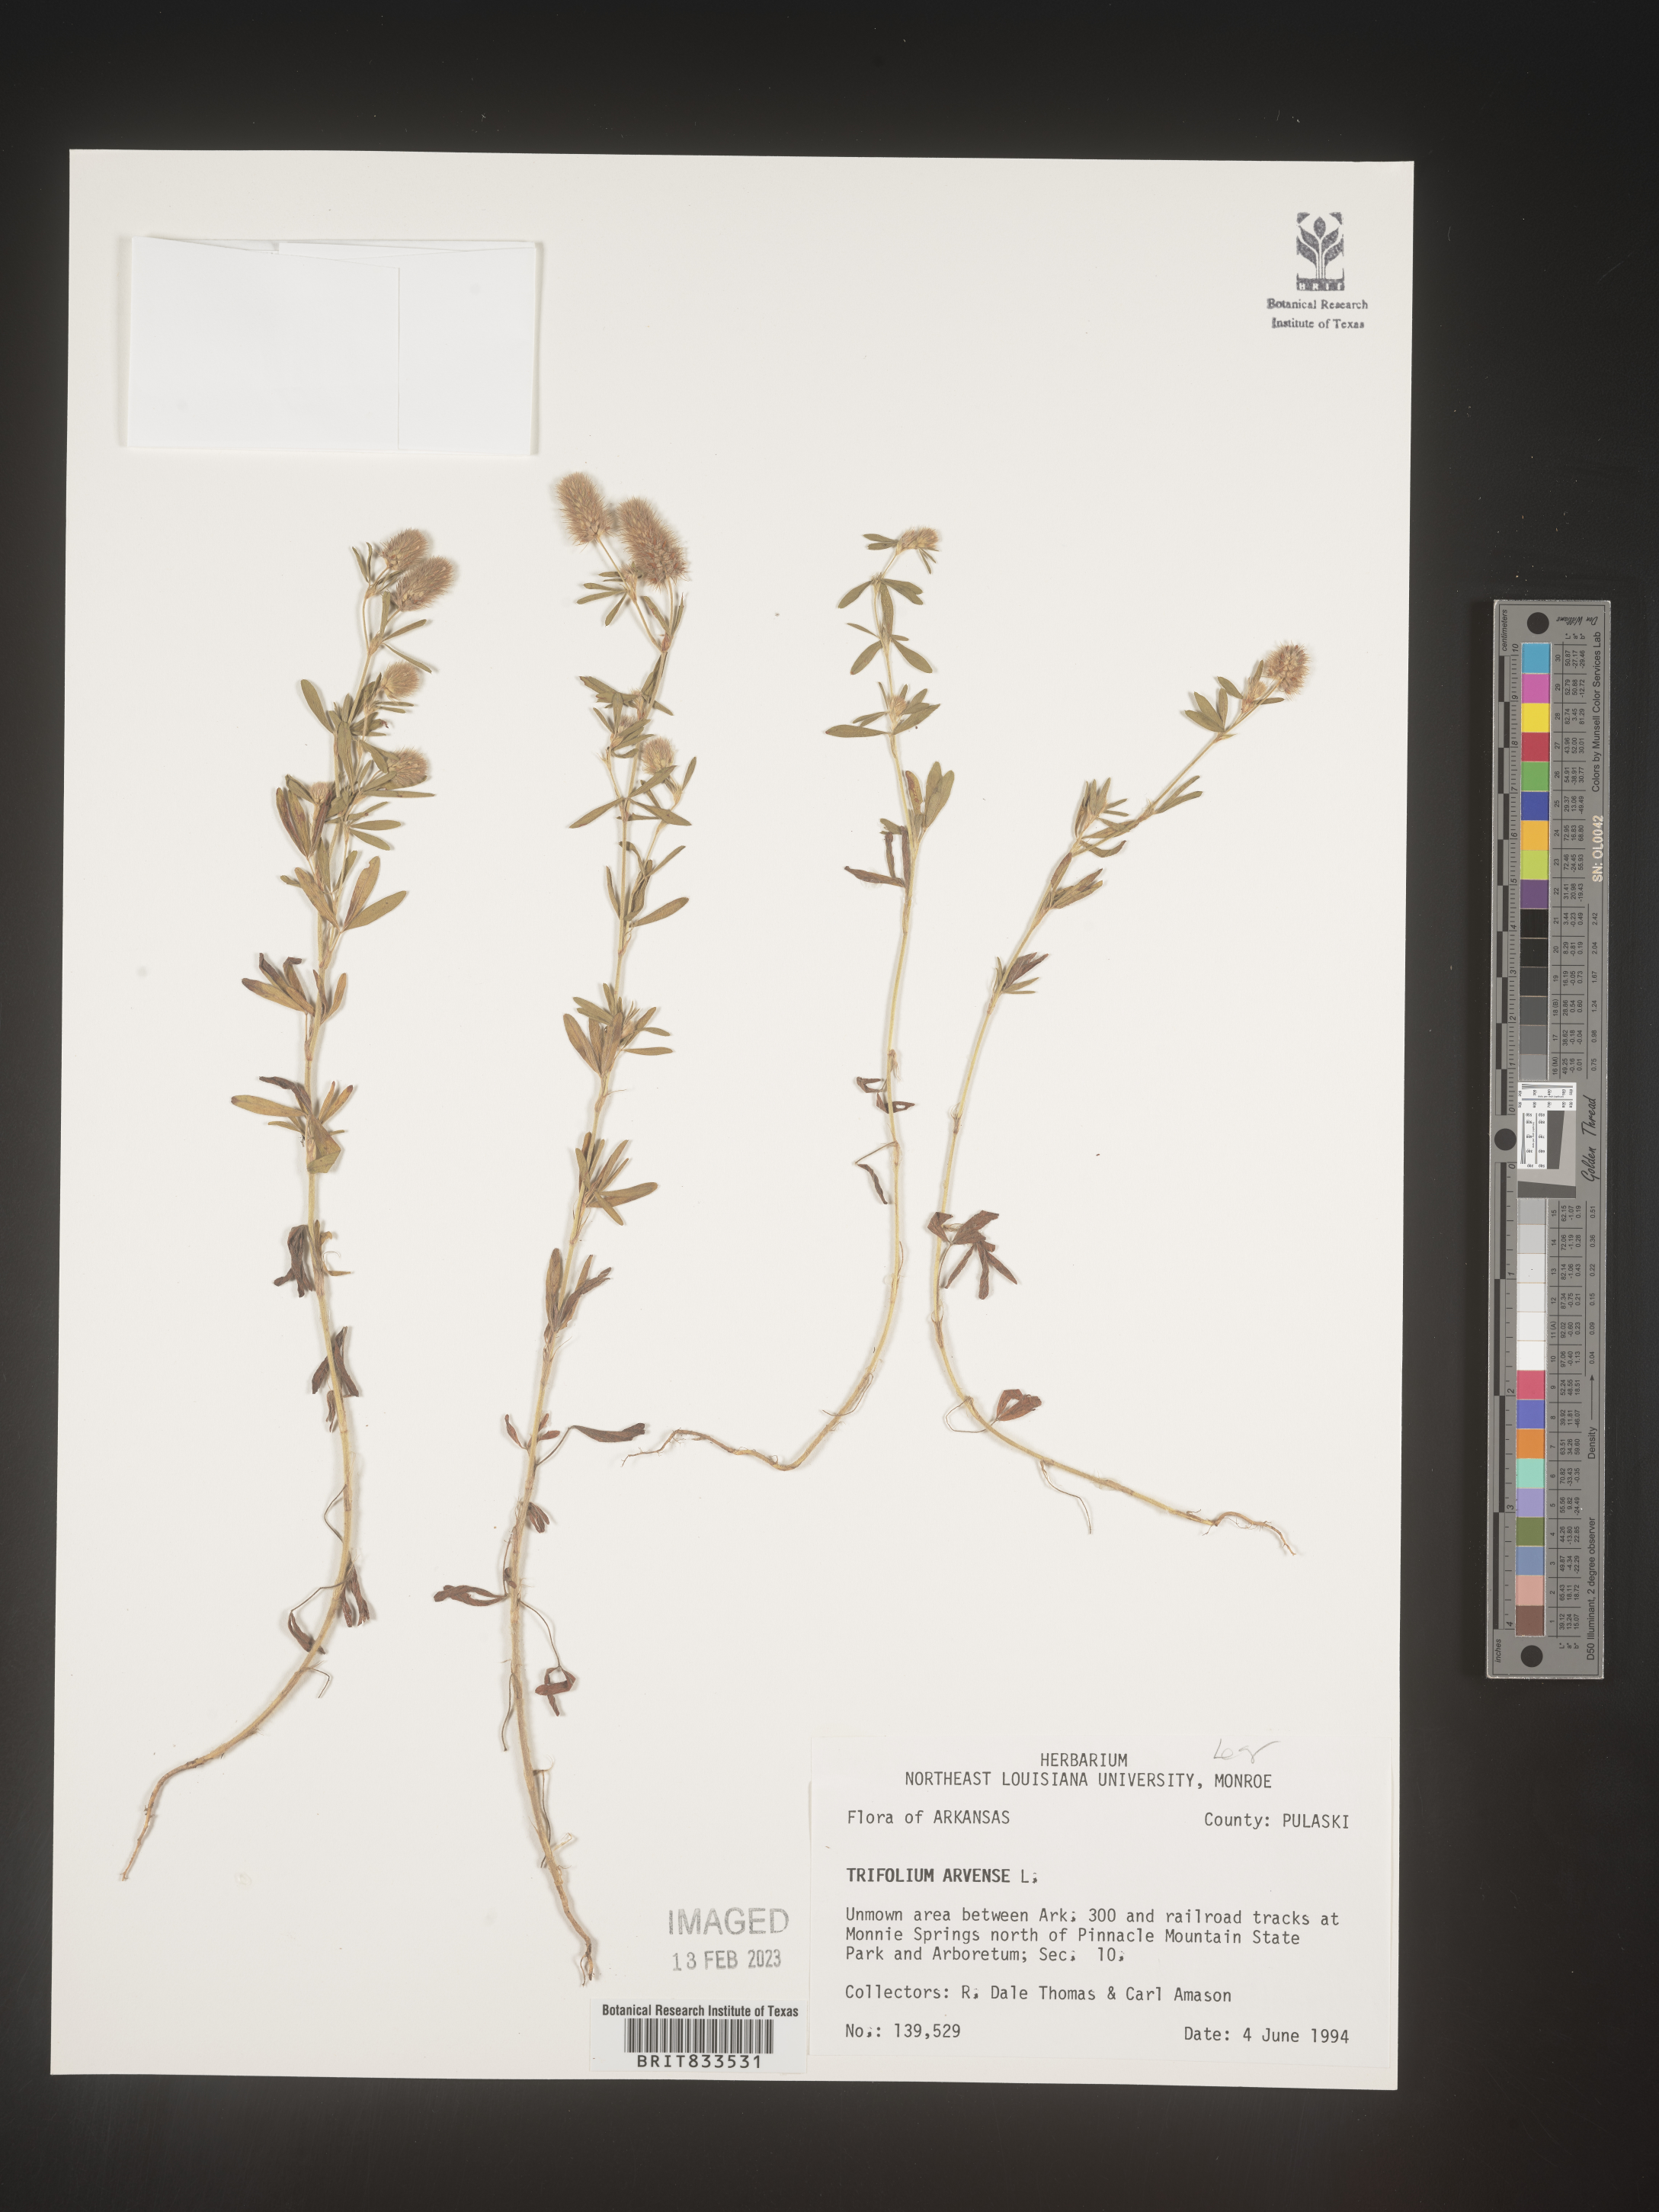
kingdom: Plantae
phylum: Tracheophyta
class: Magnoliopsida
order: Fabales
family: Fabaceae
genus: Trifolium
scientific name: Trifolium arvense
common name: Hare's-foot clover
